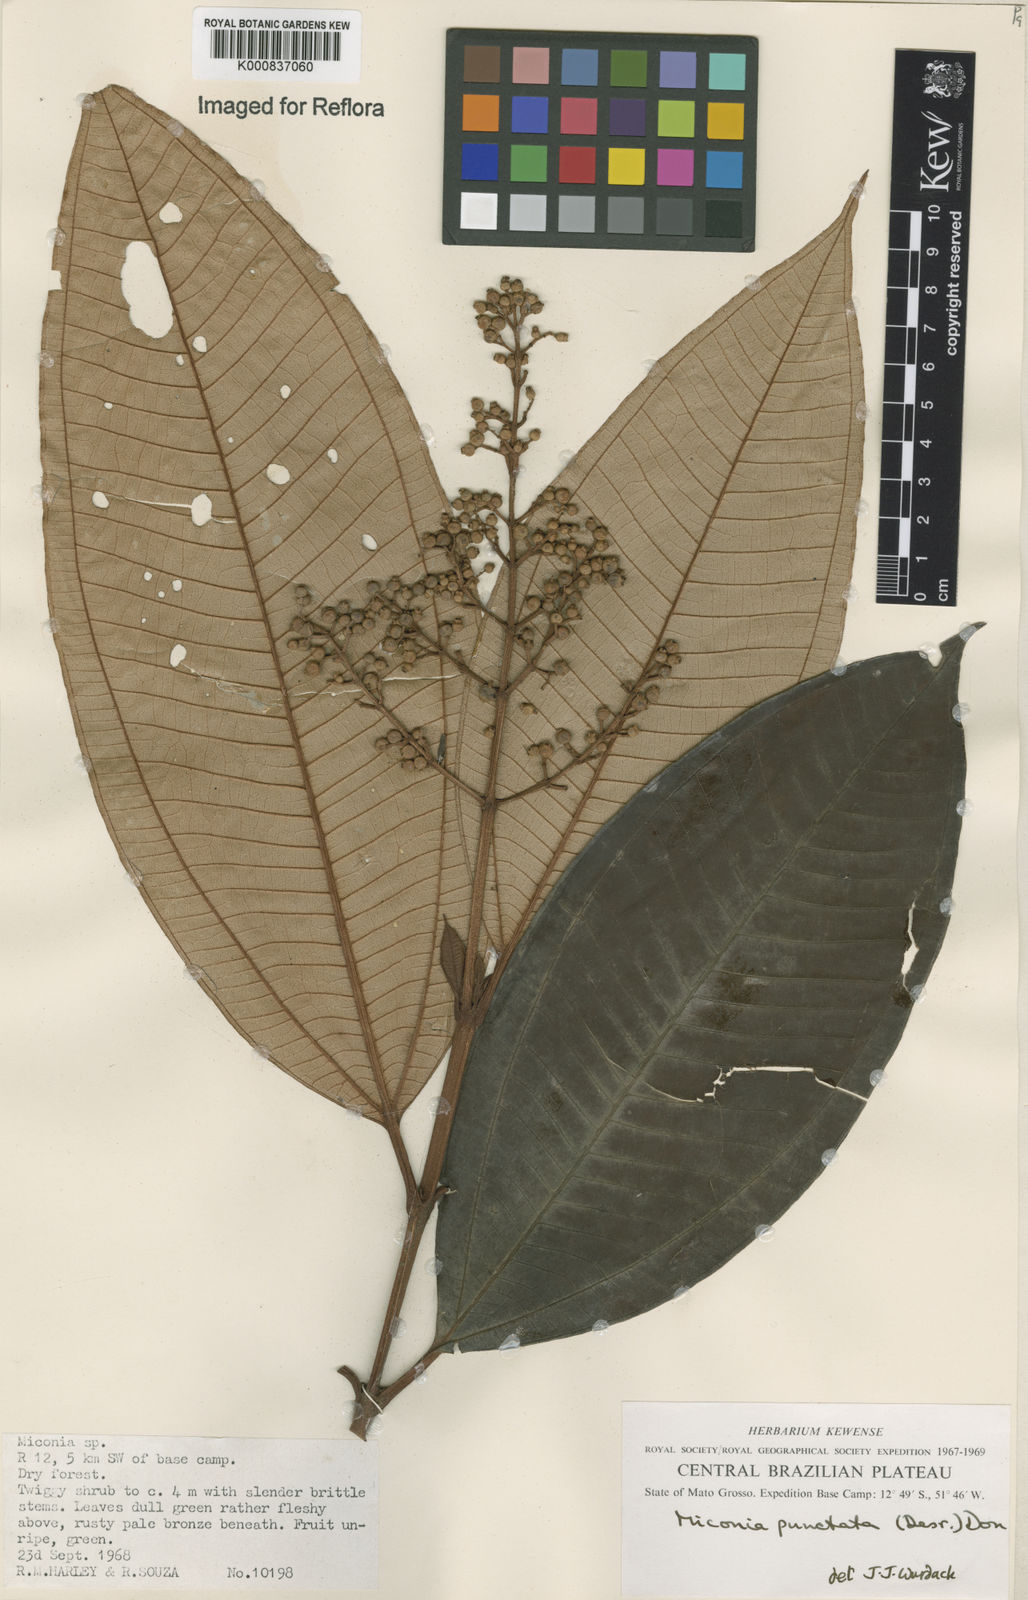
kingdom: Plantae
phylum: Tracheophyta
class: Magnoliopsida
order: Myrtales
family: Melastomataceae
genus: Miconia
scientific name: Miconia punctata
